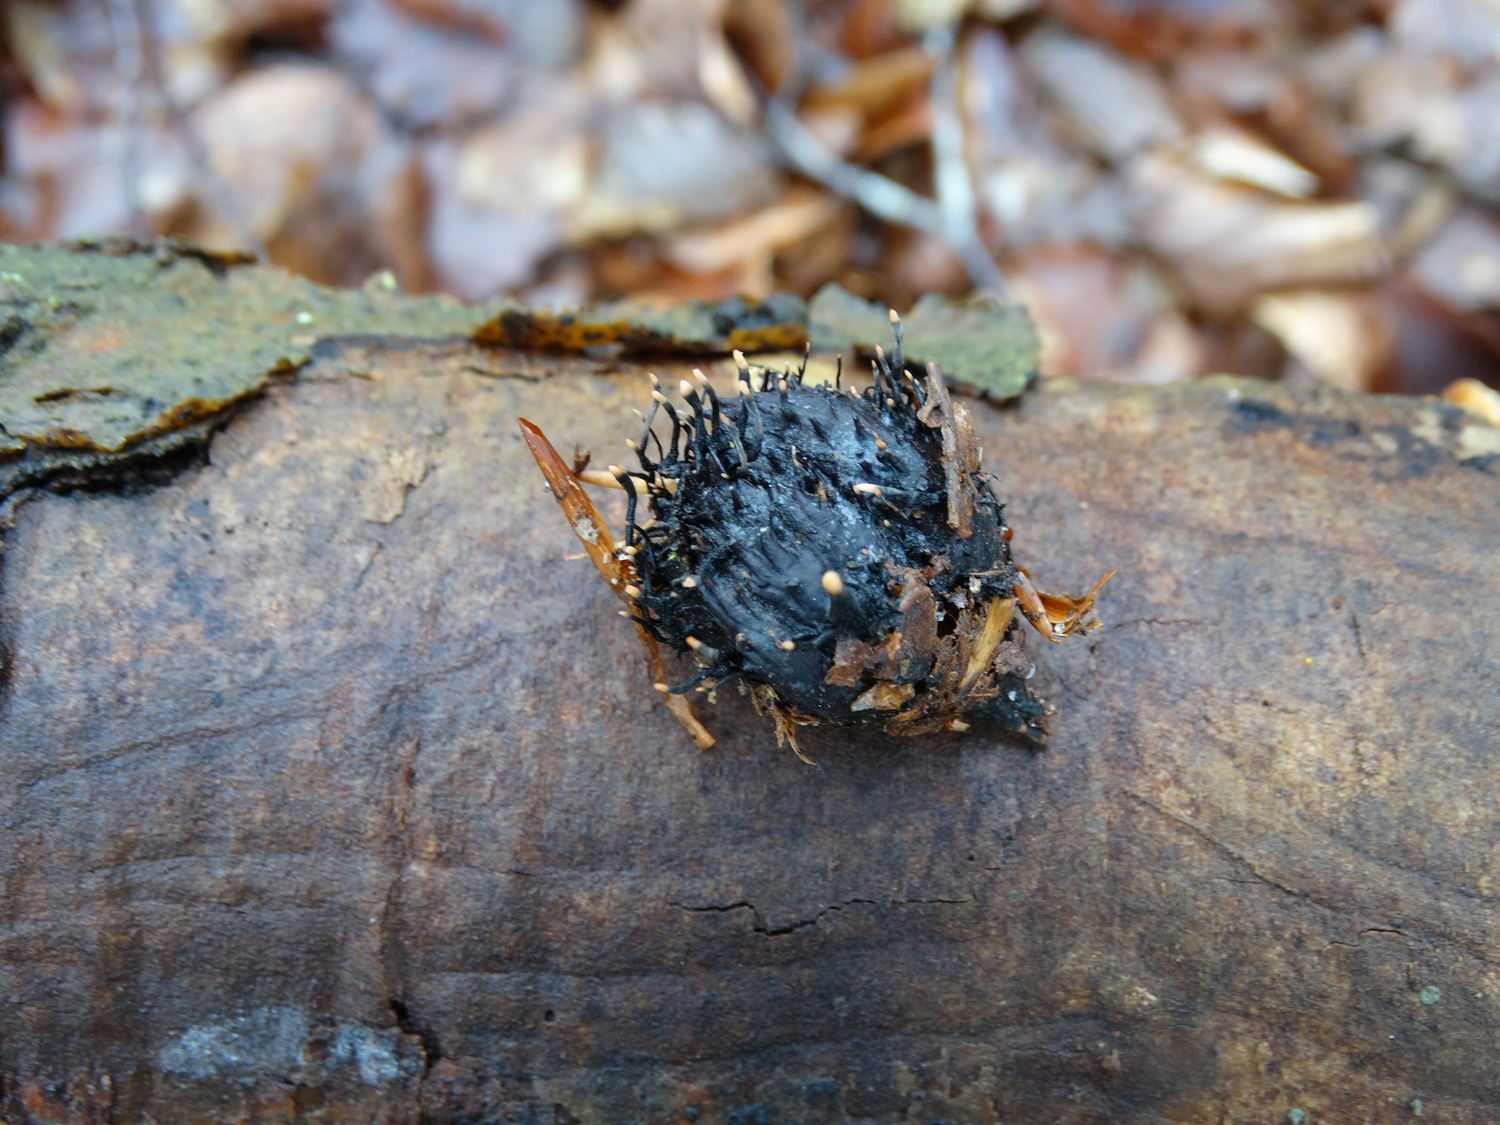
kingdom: Fungi
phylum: Ascomycota
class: Sordariomycetes
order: Xylariales
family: Xylariaceae
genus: Xylaria
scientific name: Xylaria carpophila
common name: bogskål-stødsvamp
